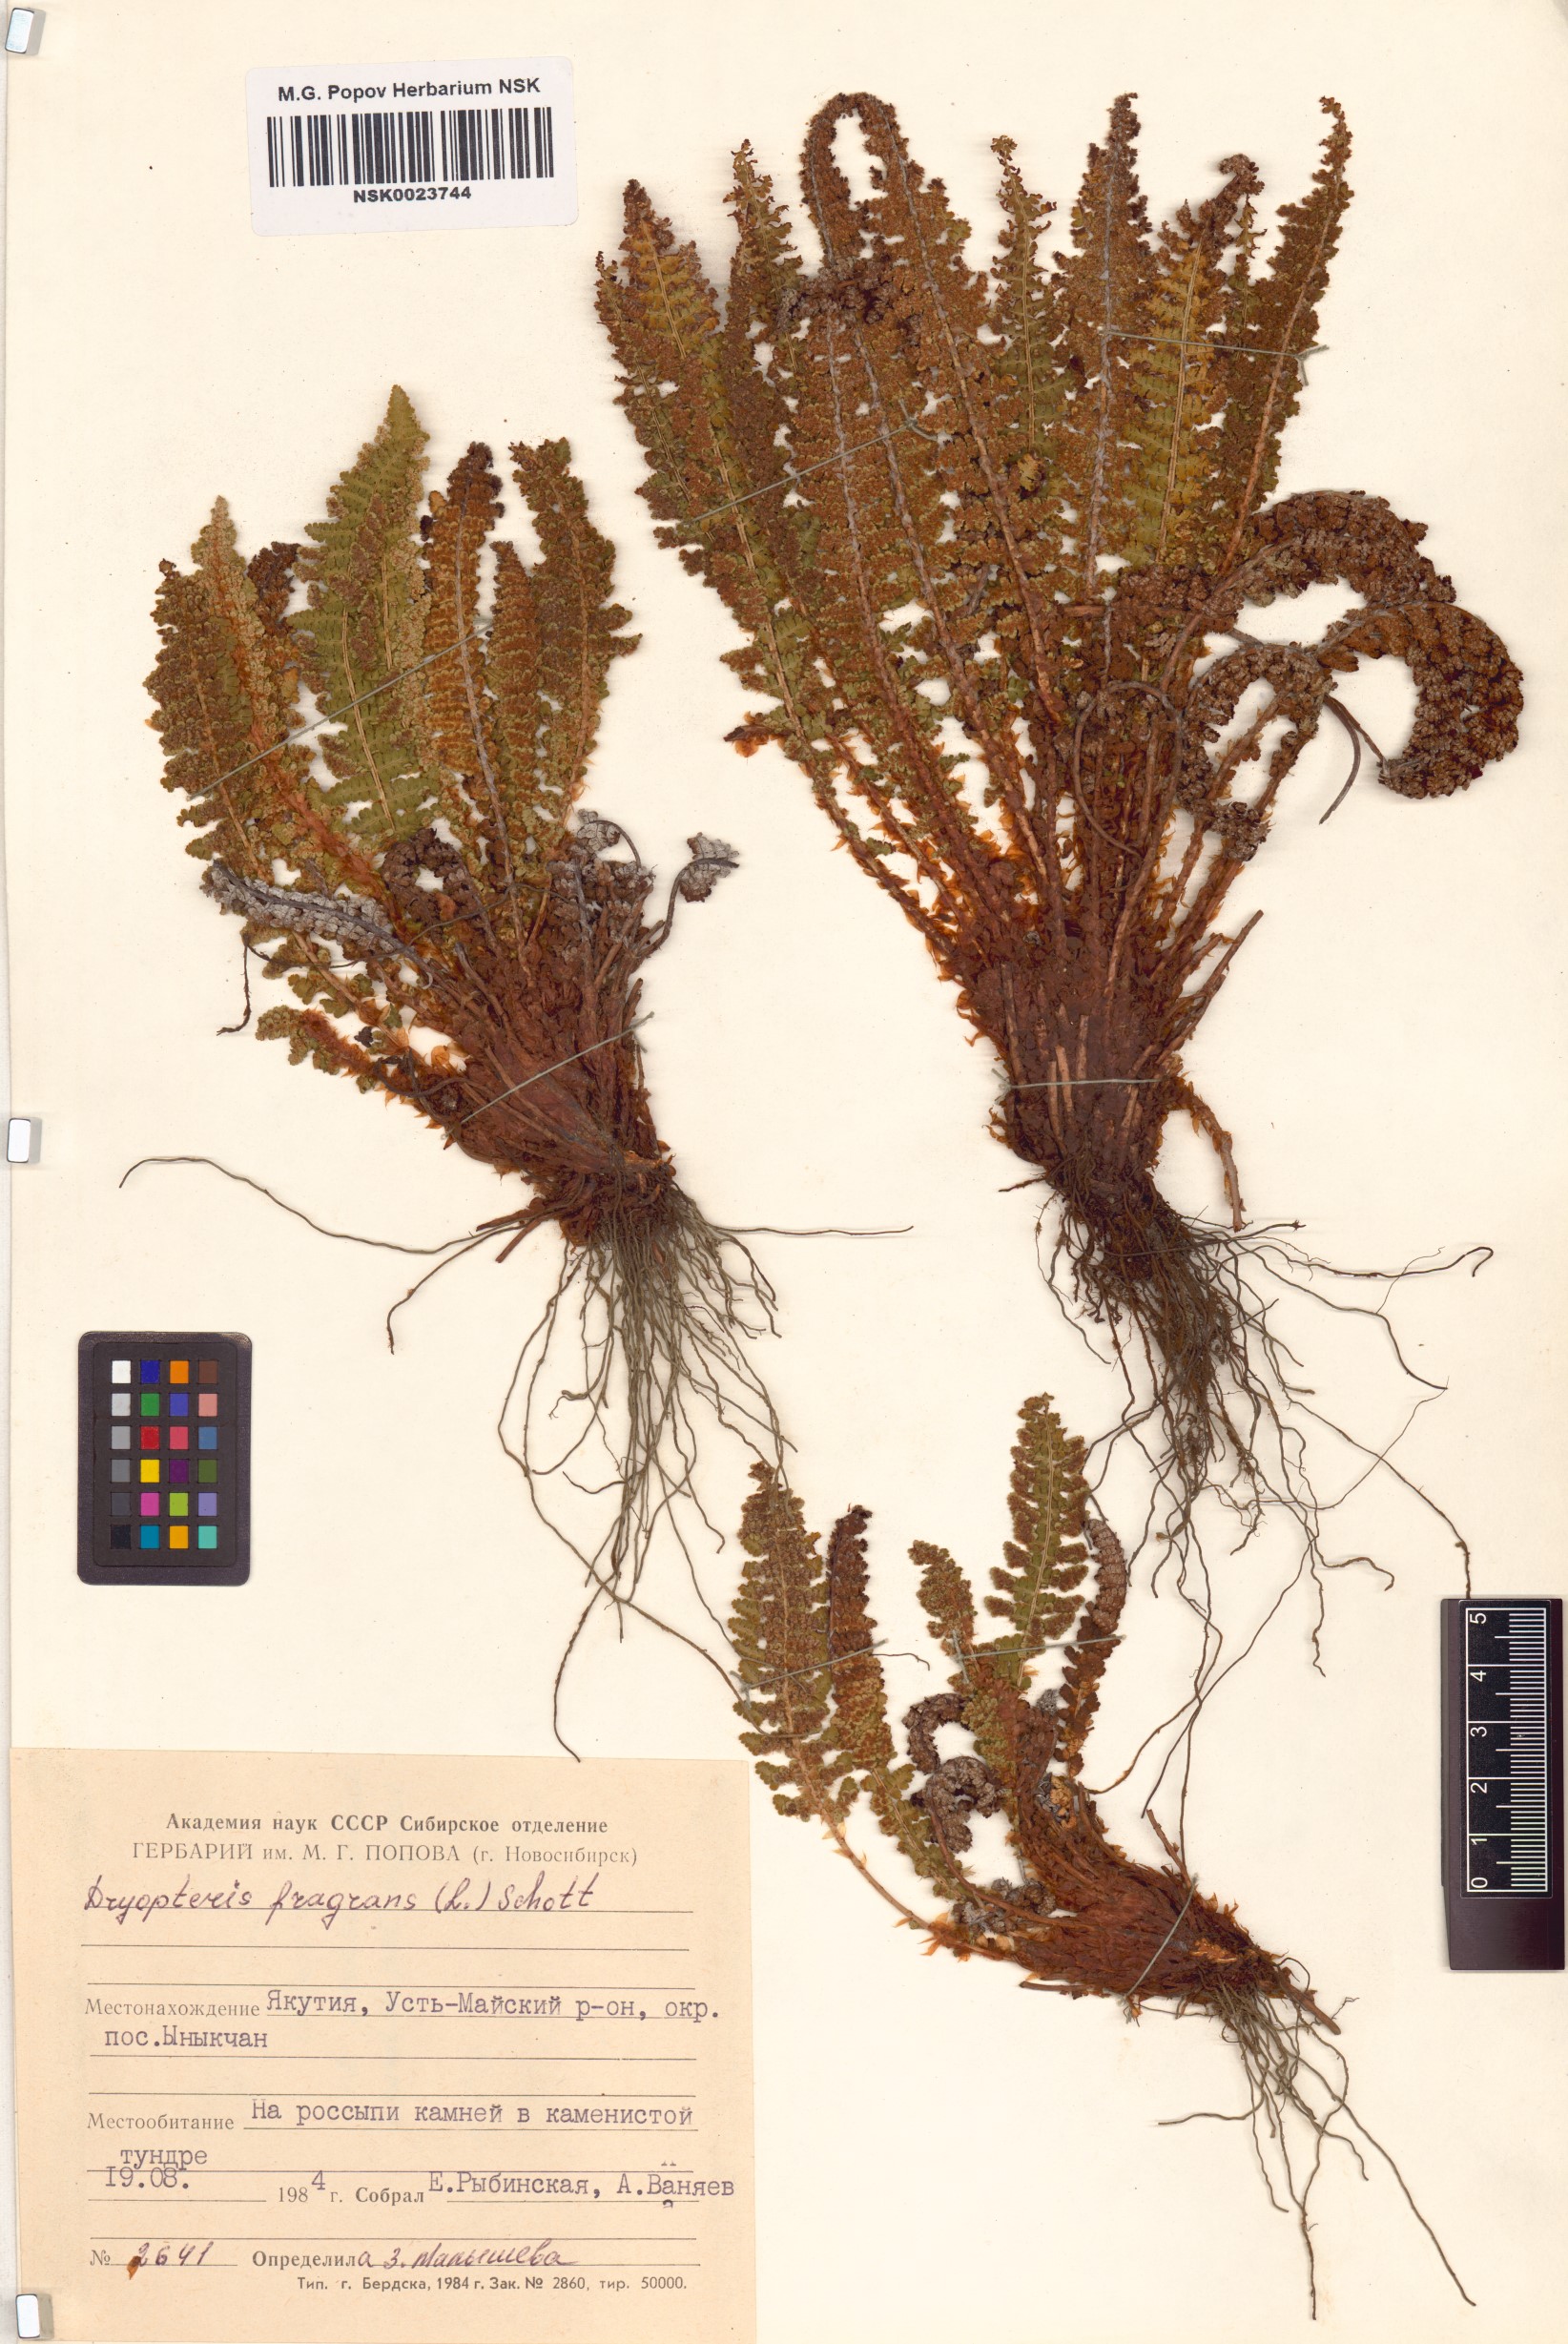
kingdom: Plantae
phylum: Tracheophyta
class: Polypodiopsida
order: Polypodiales
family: Dryopteridaceae
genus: Dryopteris
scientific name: Dryopteris fragrans
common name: Fragrant wood fern
